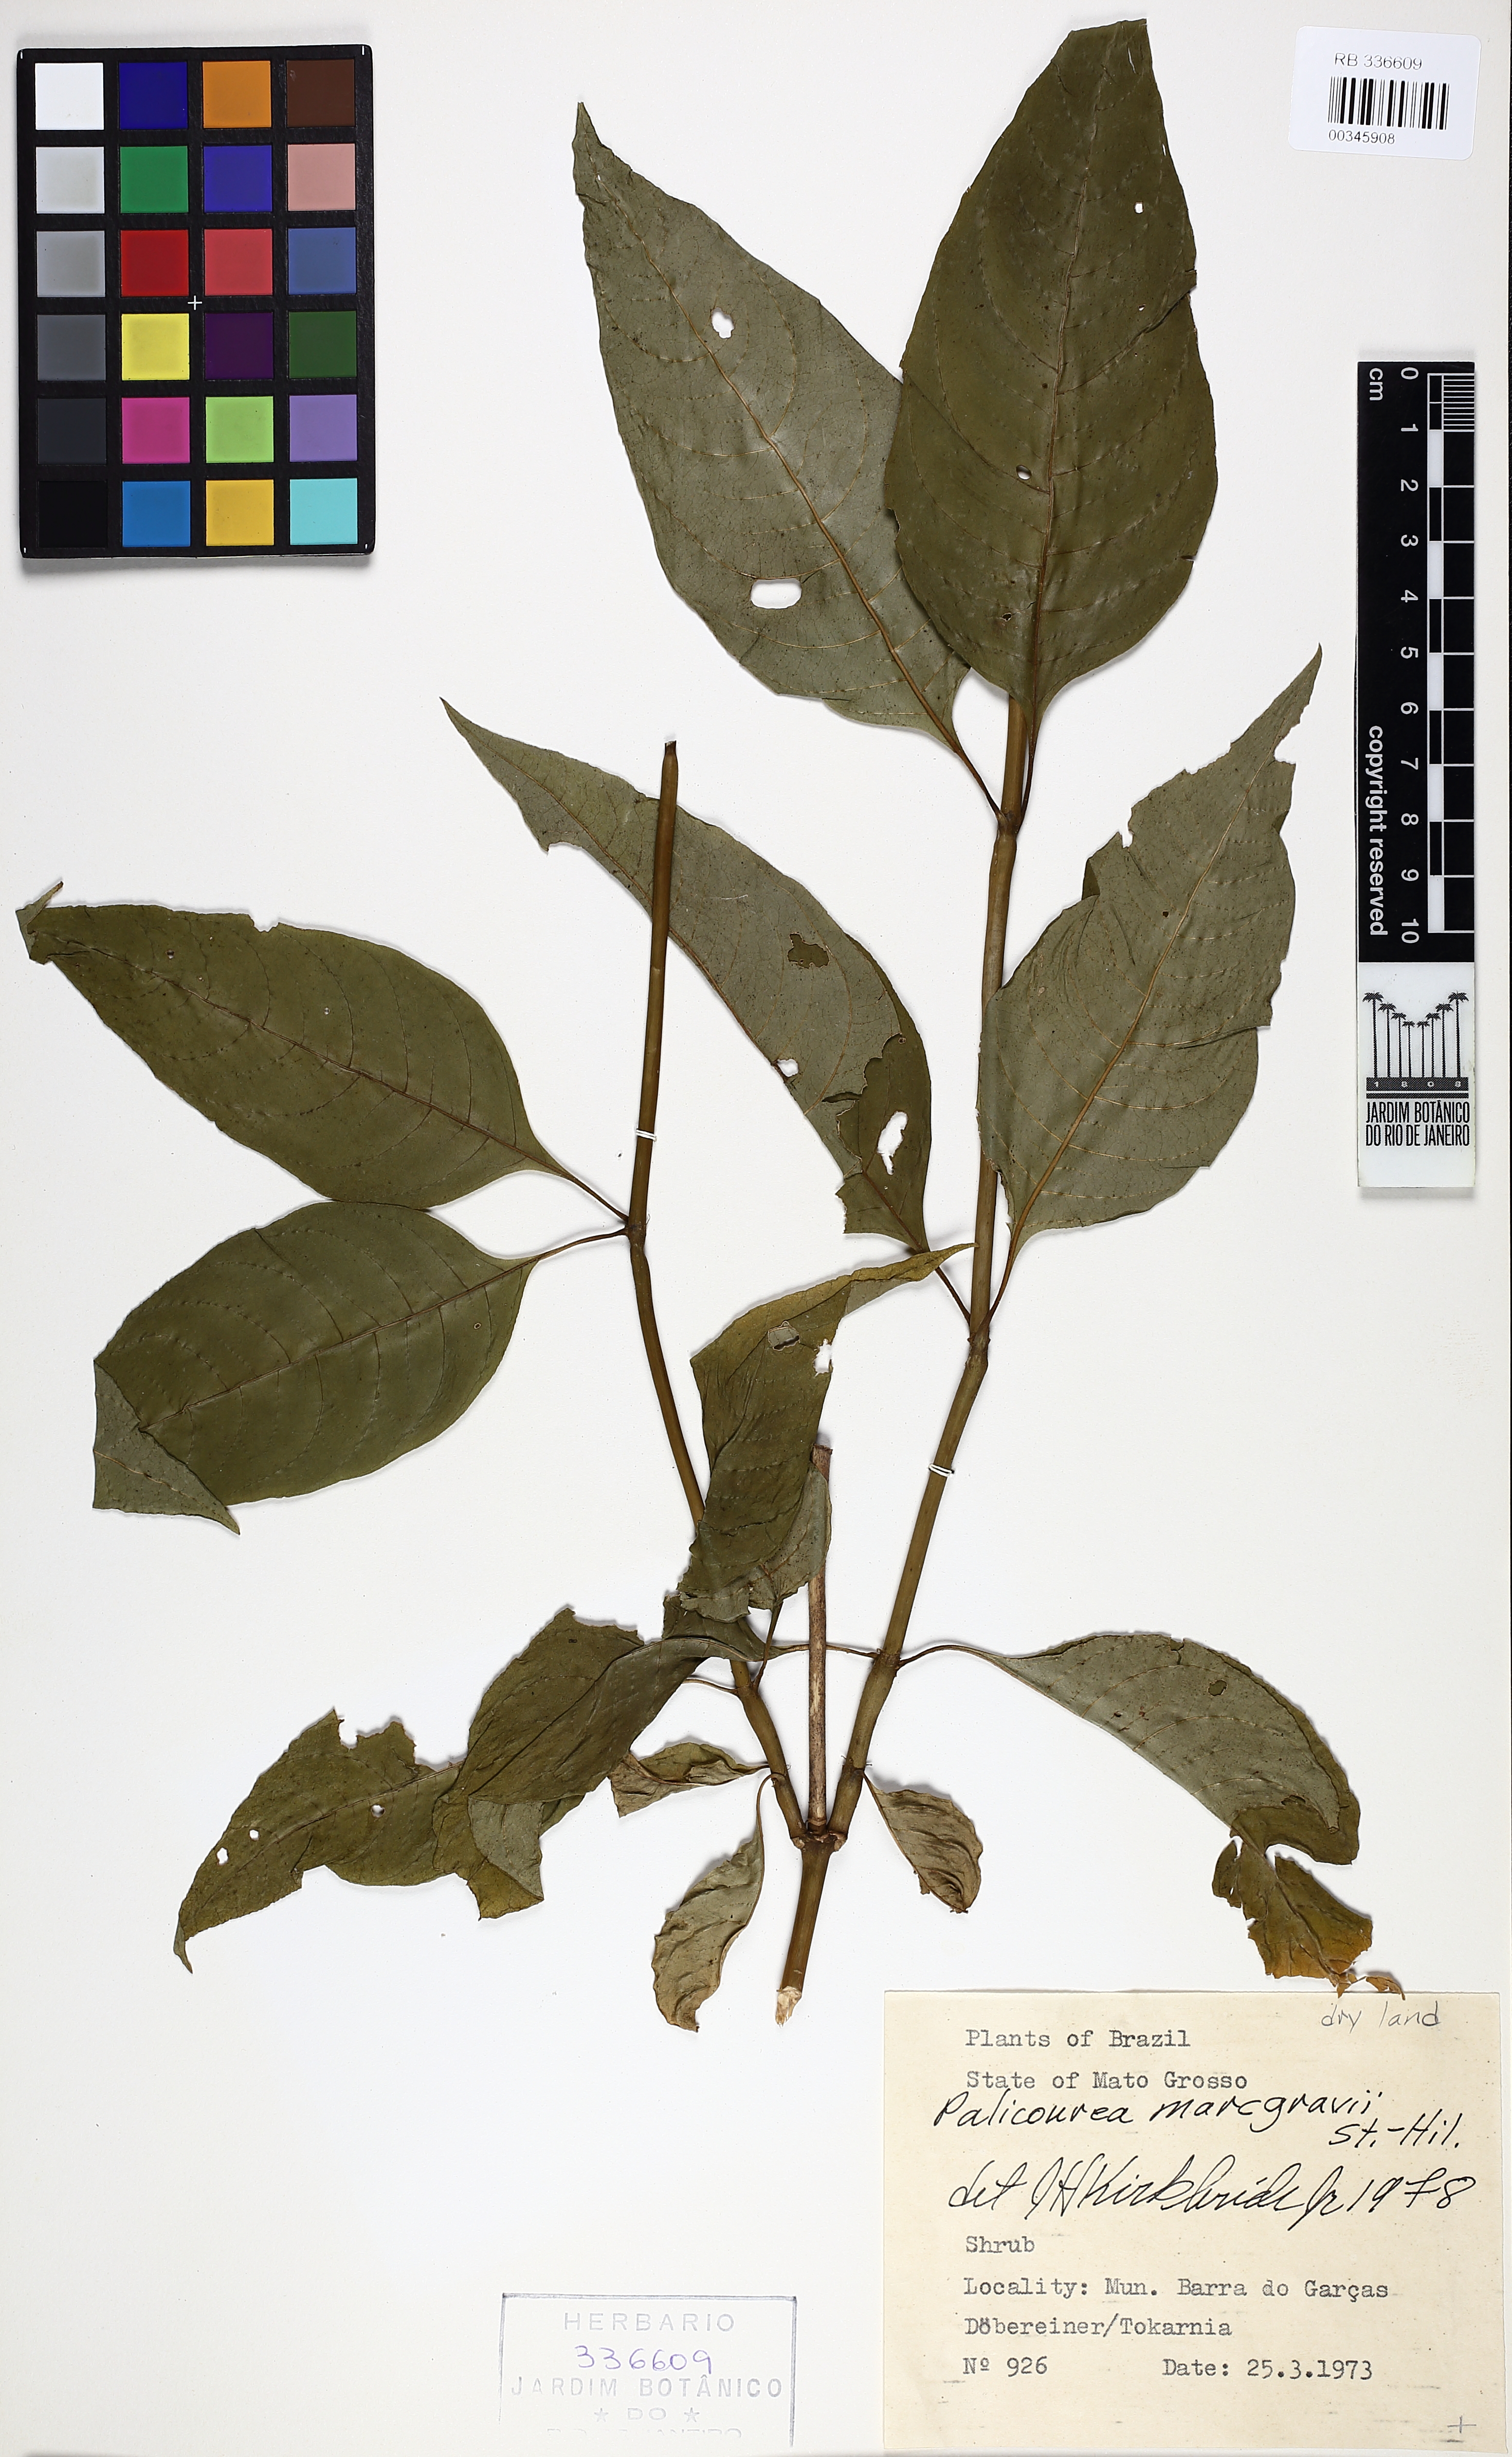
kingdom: Plantae
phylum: Tracheophyta
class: Magnoliopsida
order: Gentianales
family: Rubiaceae
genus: Palicourea
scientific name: Palicourea marcgravii
